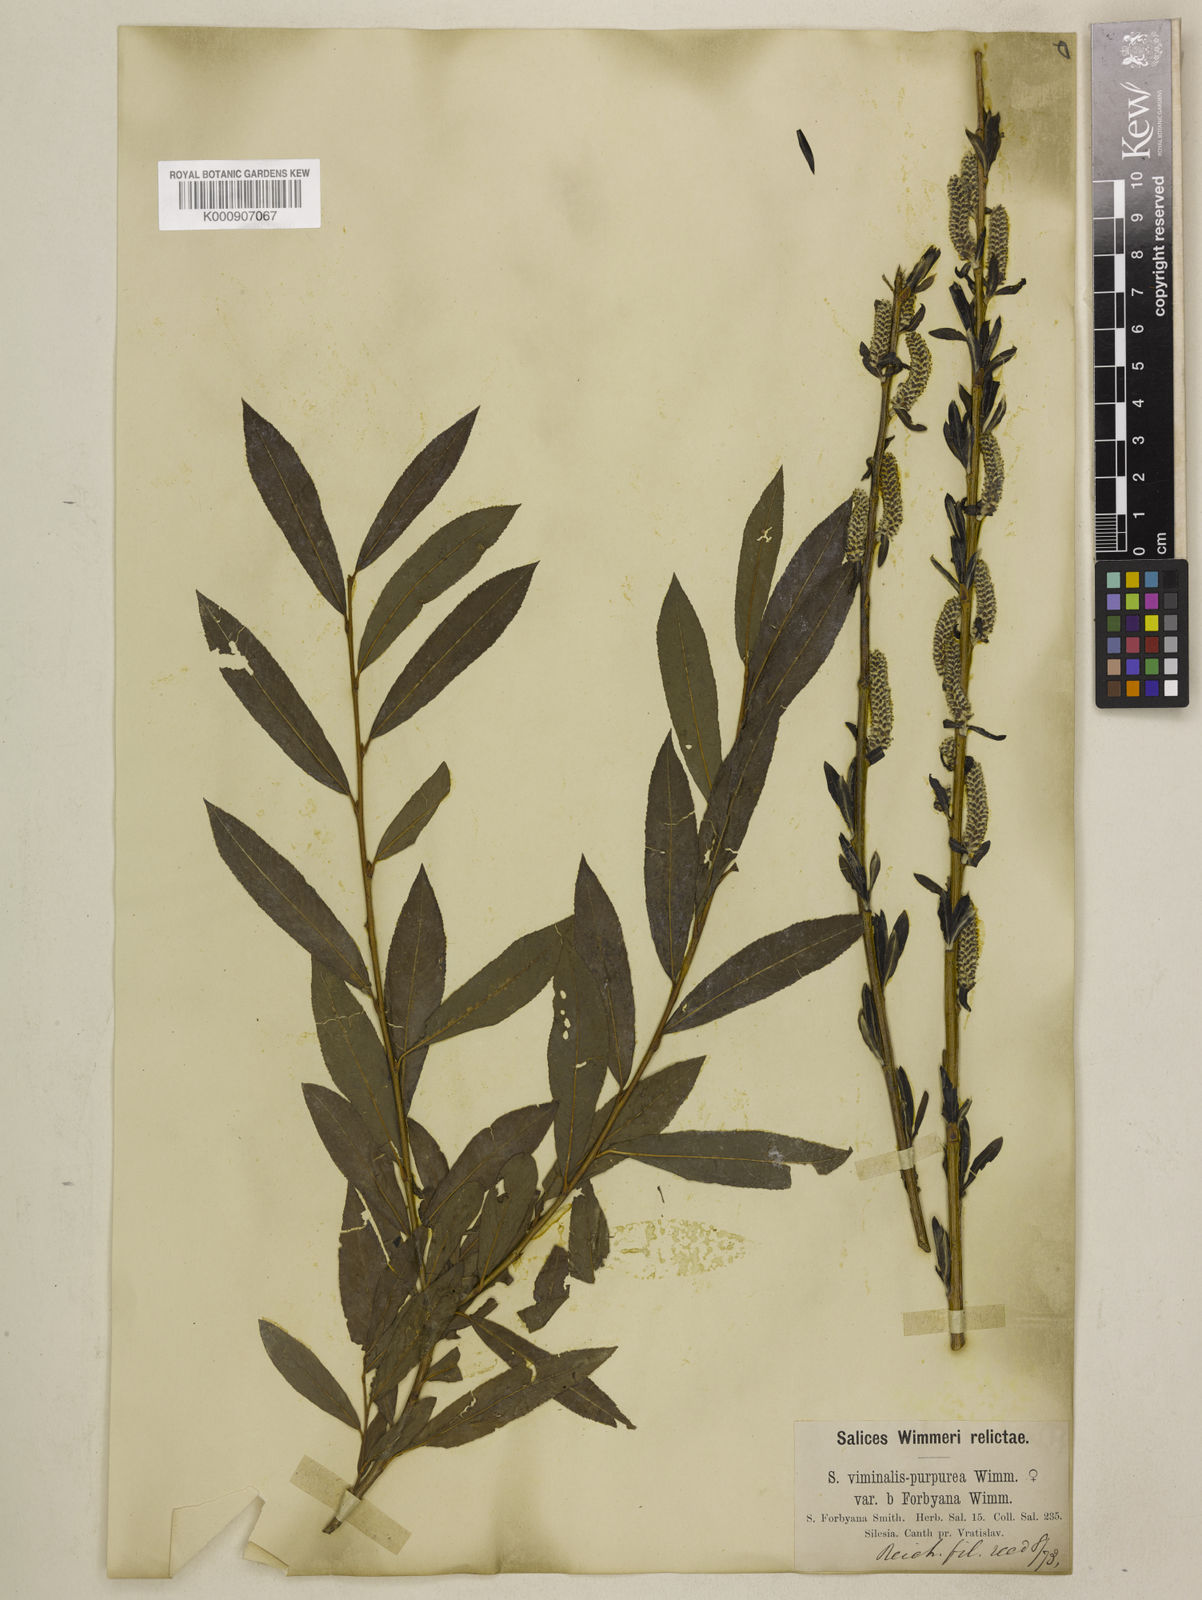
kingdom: Plantae
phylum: Tracheophyta
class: Magnoliopsida
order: Malpighiales
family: Salicaceae
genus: Salix
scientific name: Salix purpurea
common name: Purple willow
